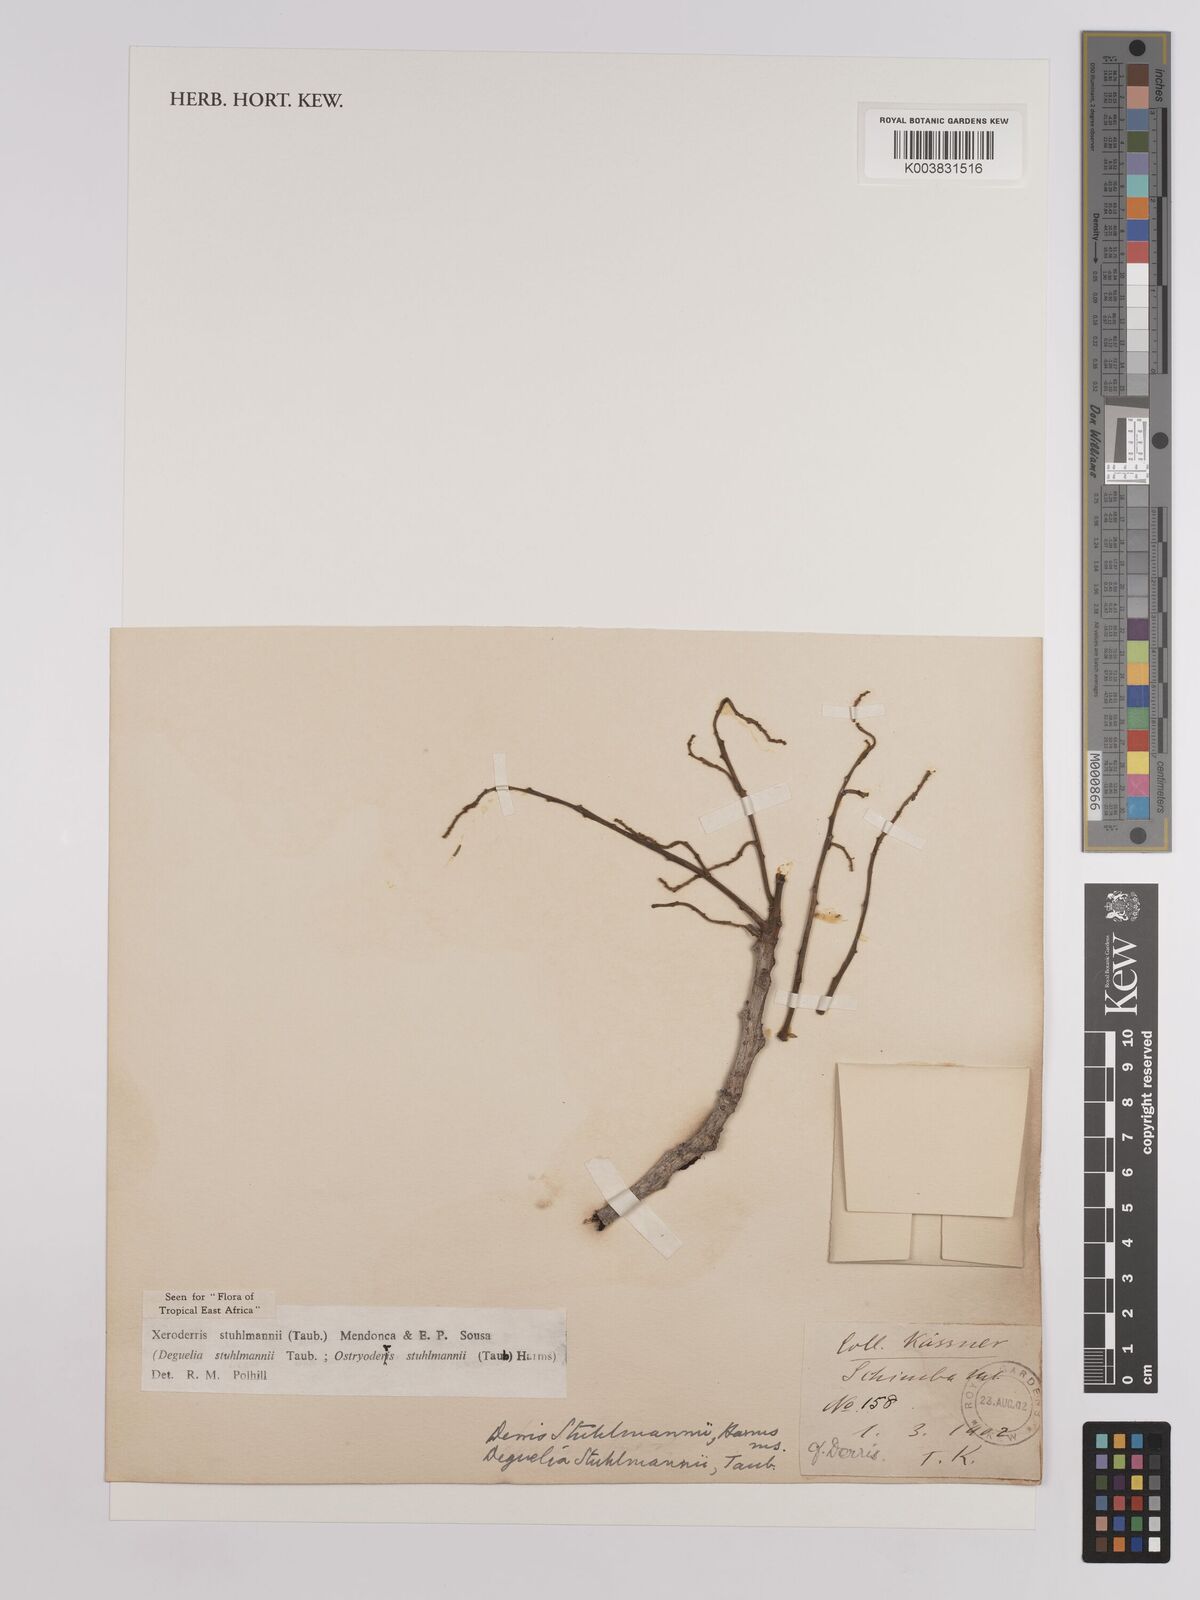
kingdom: Plantae
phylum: Tracheophyta
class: Magnoliopsida
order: Fabales
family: Fabaceae
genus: Aganope
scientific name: Aganope stuhlmannii
